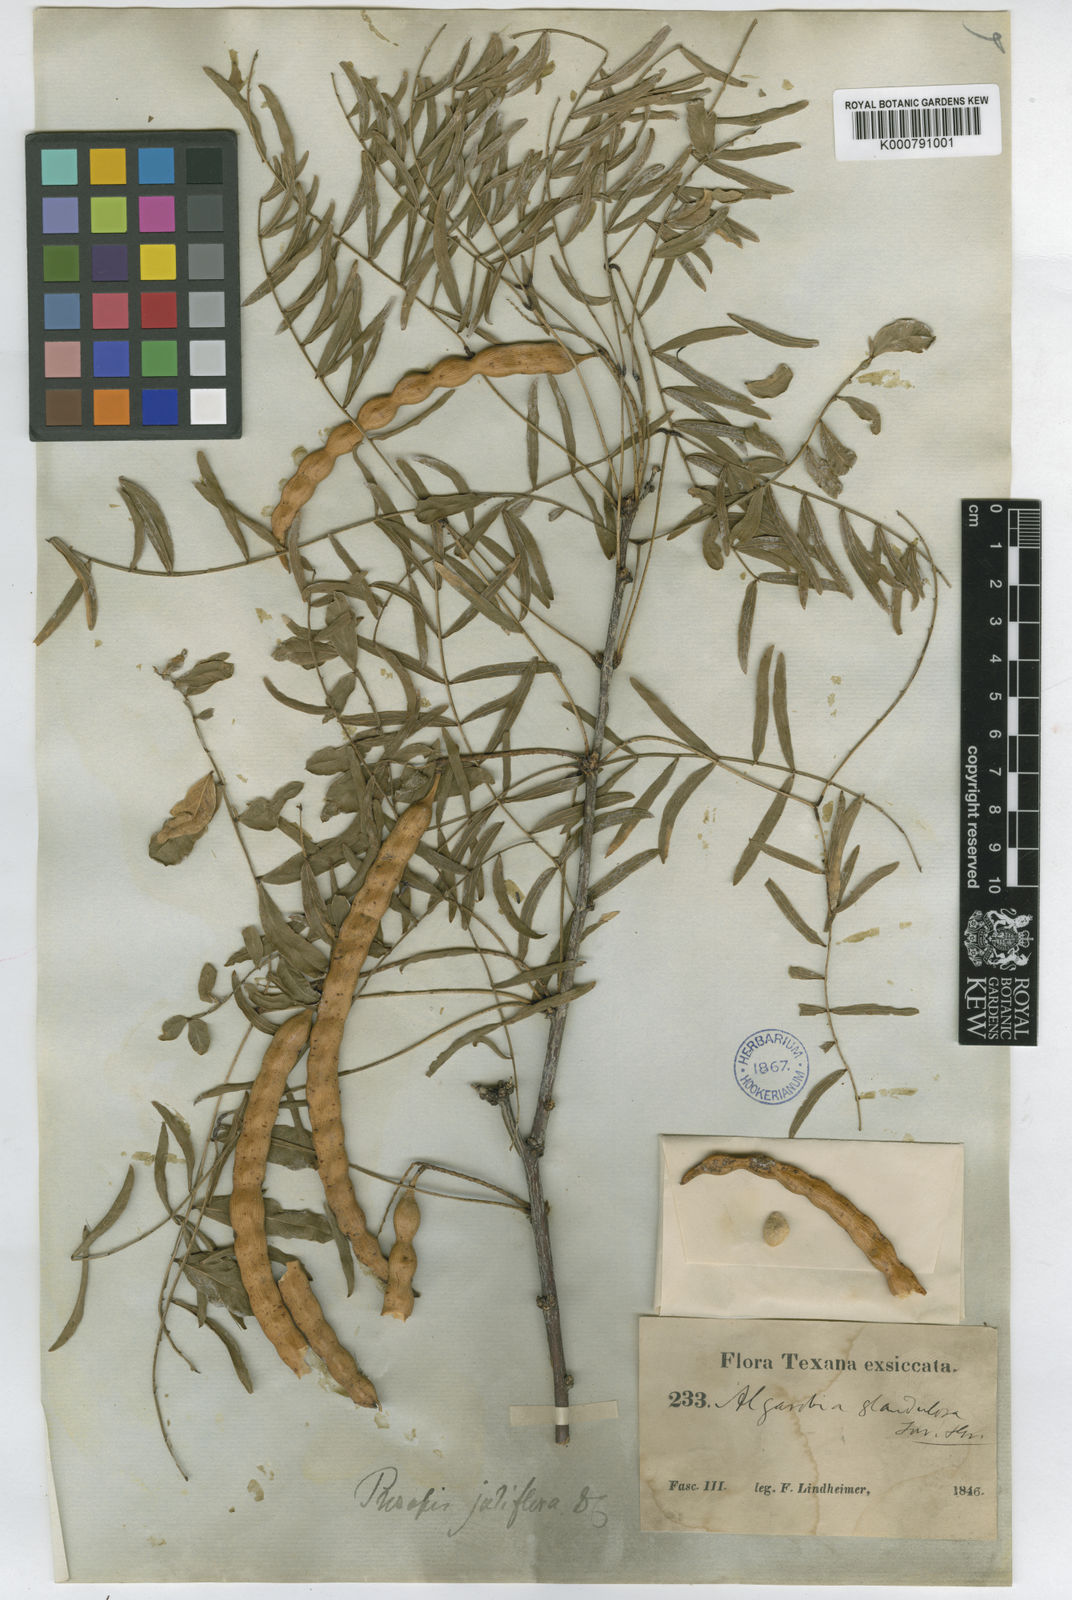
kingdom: Plantae
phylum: Tracheophyta
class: Magnoliopsida
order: Fabales
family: Fabaceae
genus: Prosopis
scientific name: Prosopis juliflora
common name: Mesquite
